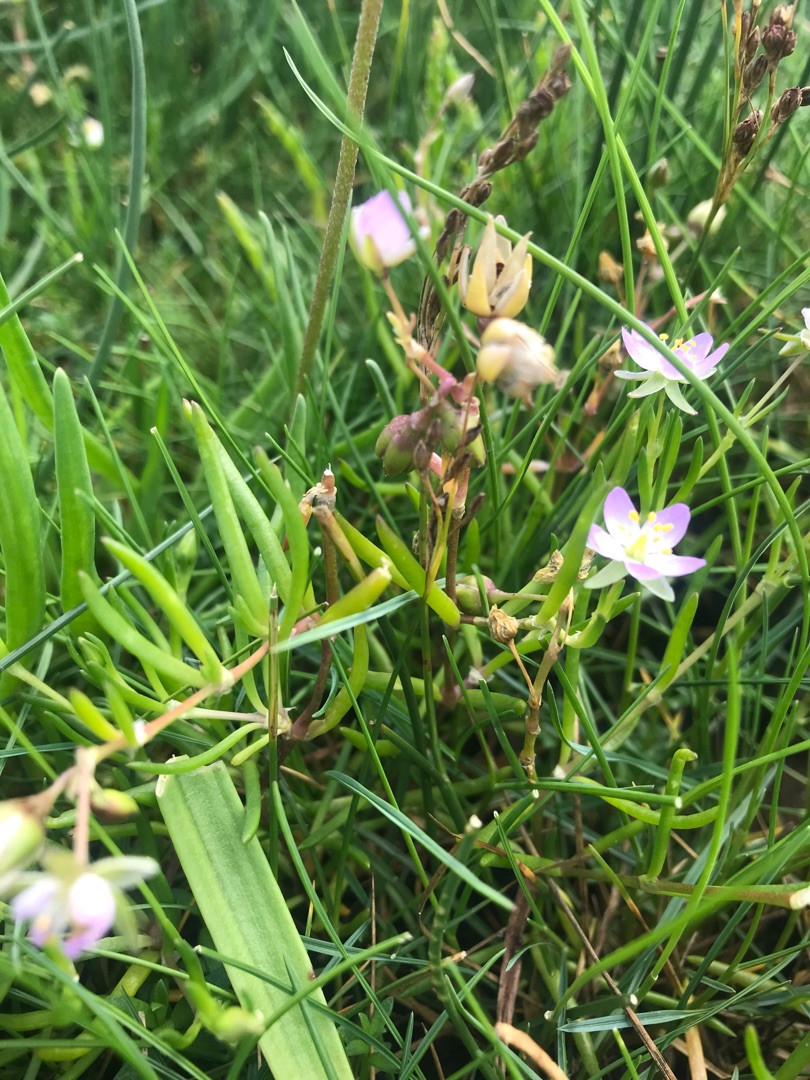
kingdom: Plantae
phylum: Tracheophyta
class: Magnoliopsida
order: Caryophyllales
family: Caryophyllaceae
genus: Spergularia
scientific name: Spergularia media
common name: Vingefrøet hindeknæ
